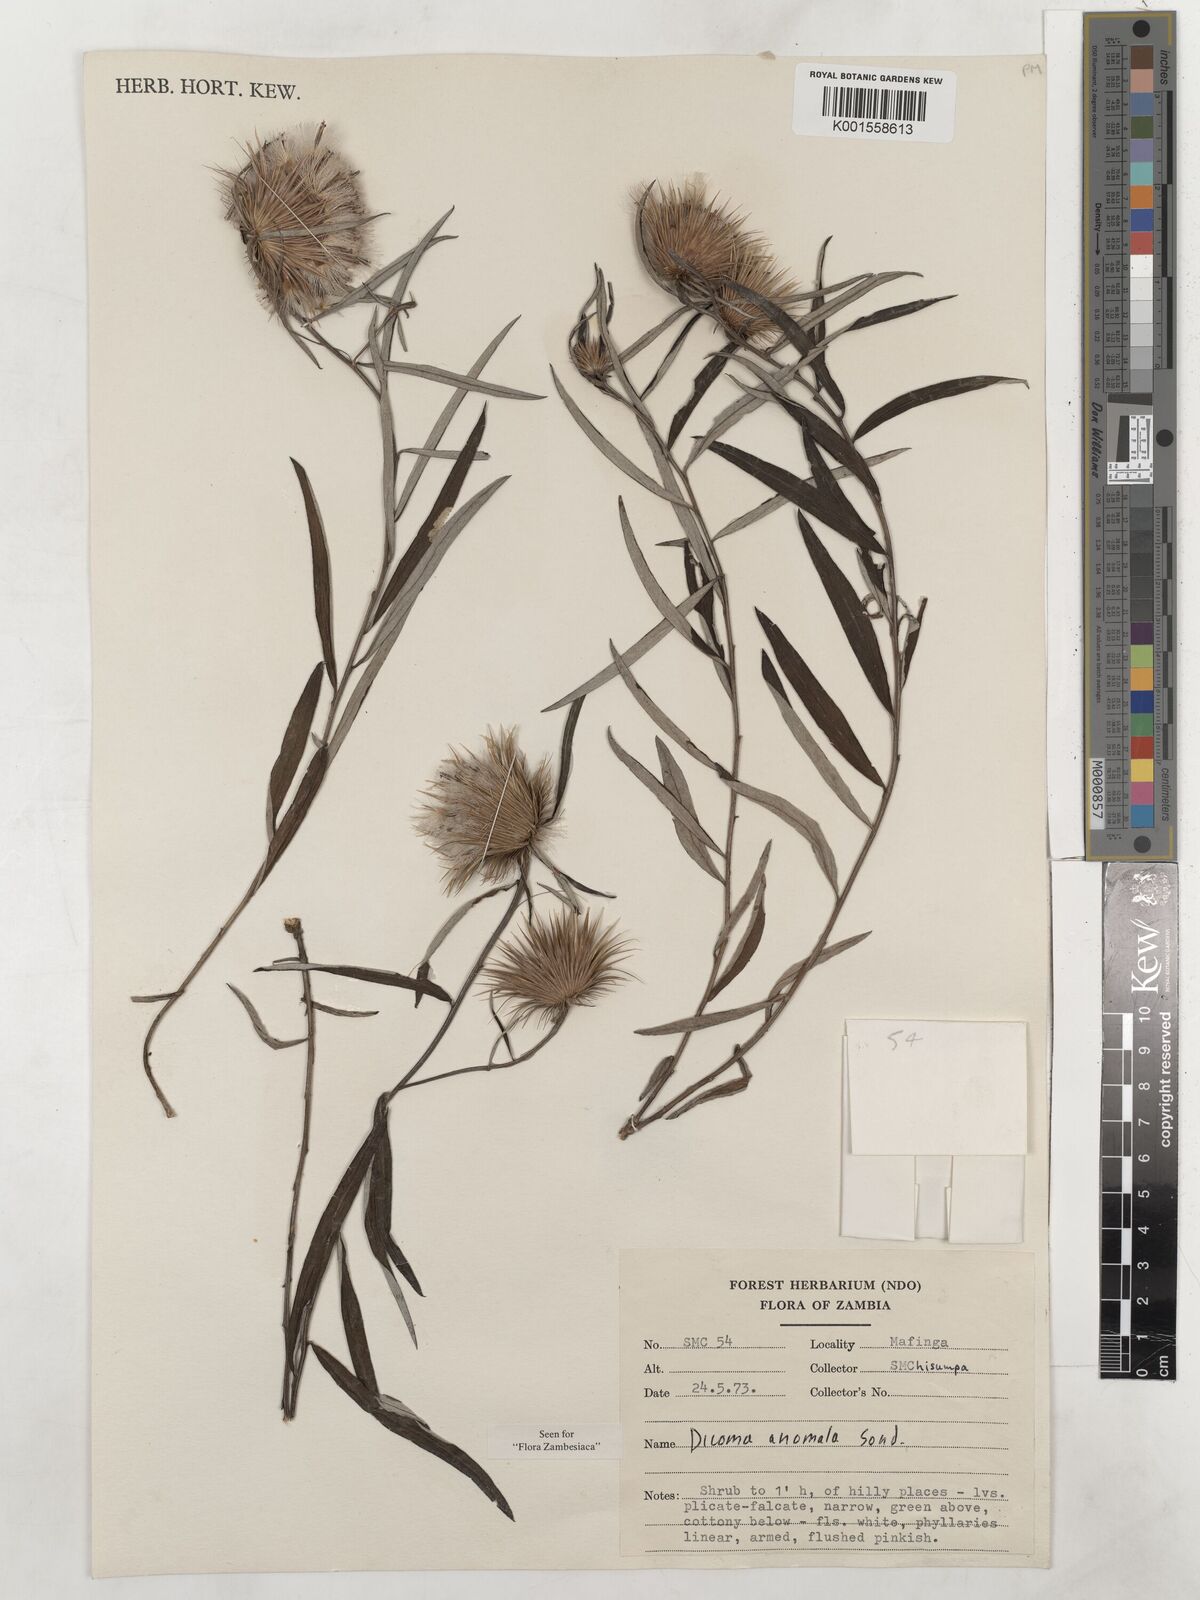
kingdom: Plantae
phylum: Tracheophyta
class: Magnoliopsida
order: Asterales
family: Asteraceae
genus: Dicoma
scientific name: Dicoma anomala
